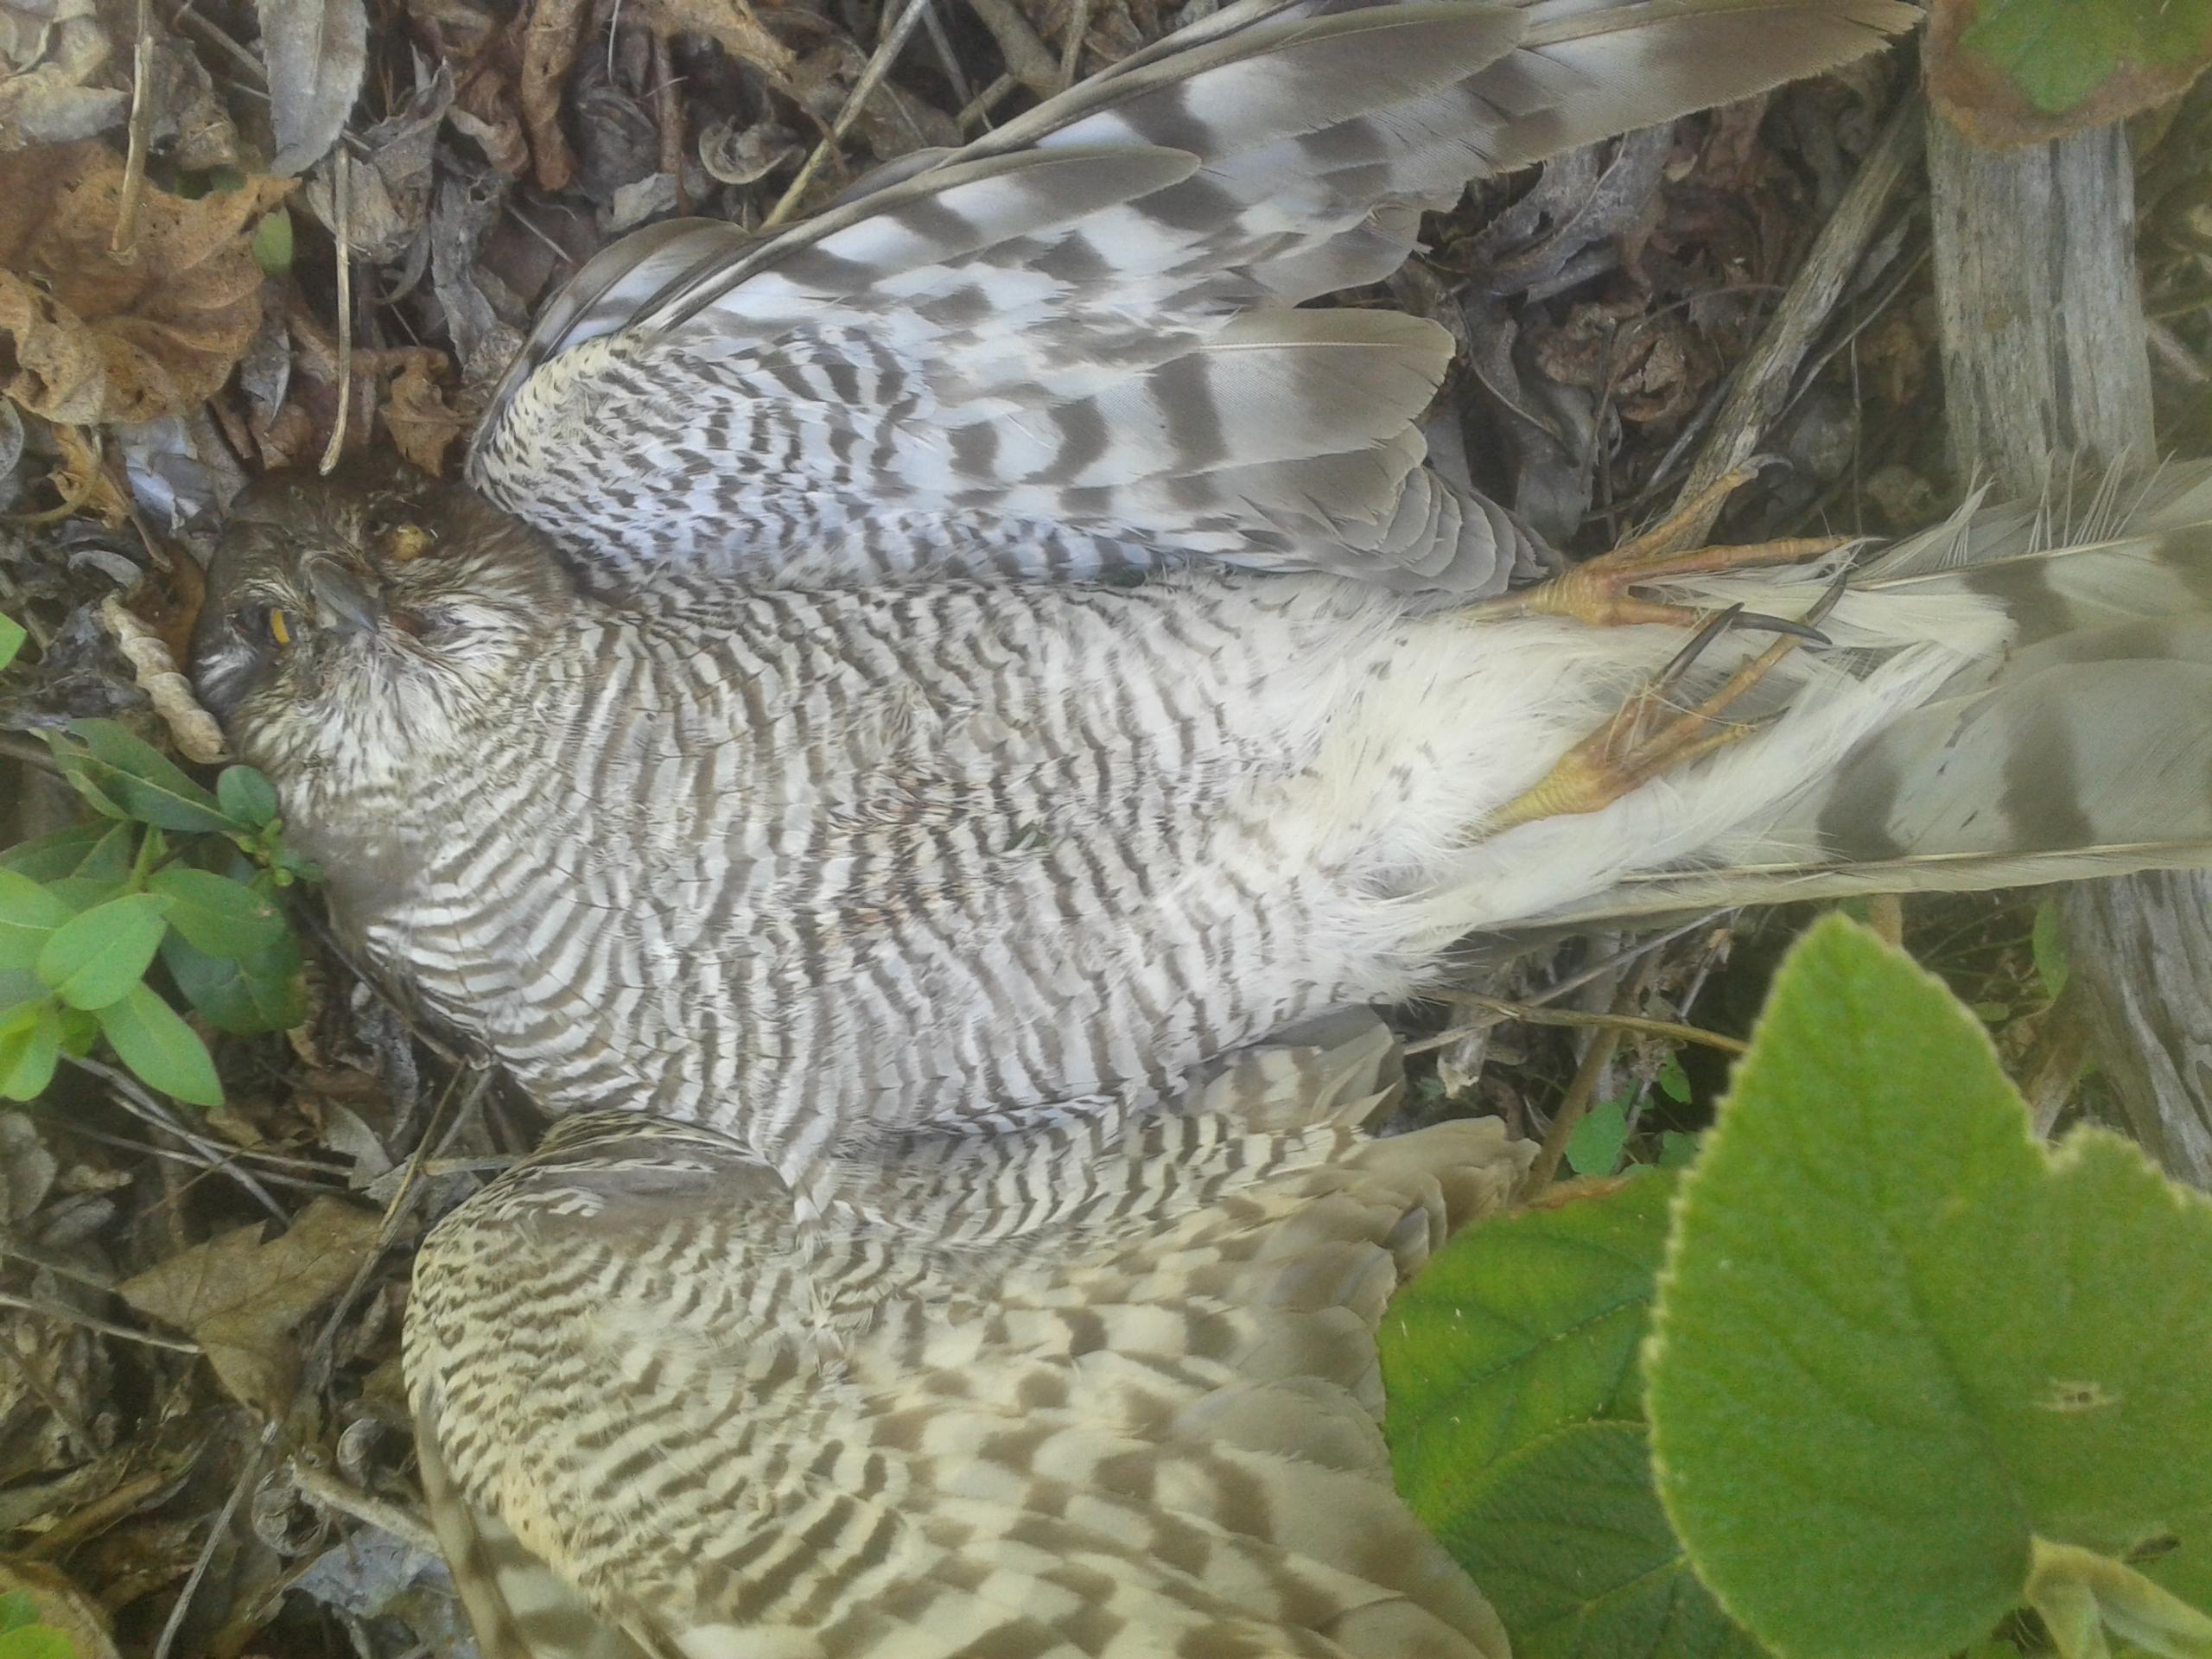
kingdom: Animalia
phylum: Chordata
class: Aves
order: Accipitriformes
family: Accipitridae
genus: Accipiter
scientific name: Accipiter nisus
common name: Eurasian sparrowhawk
